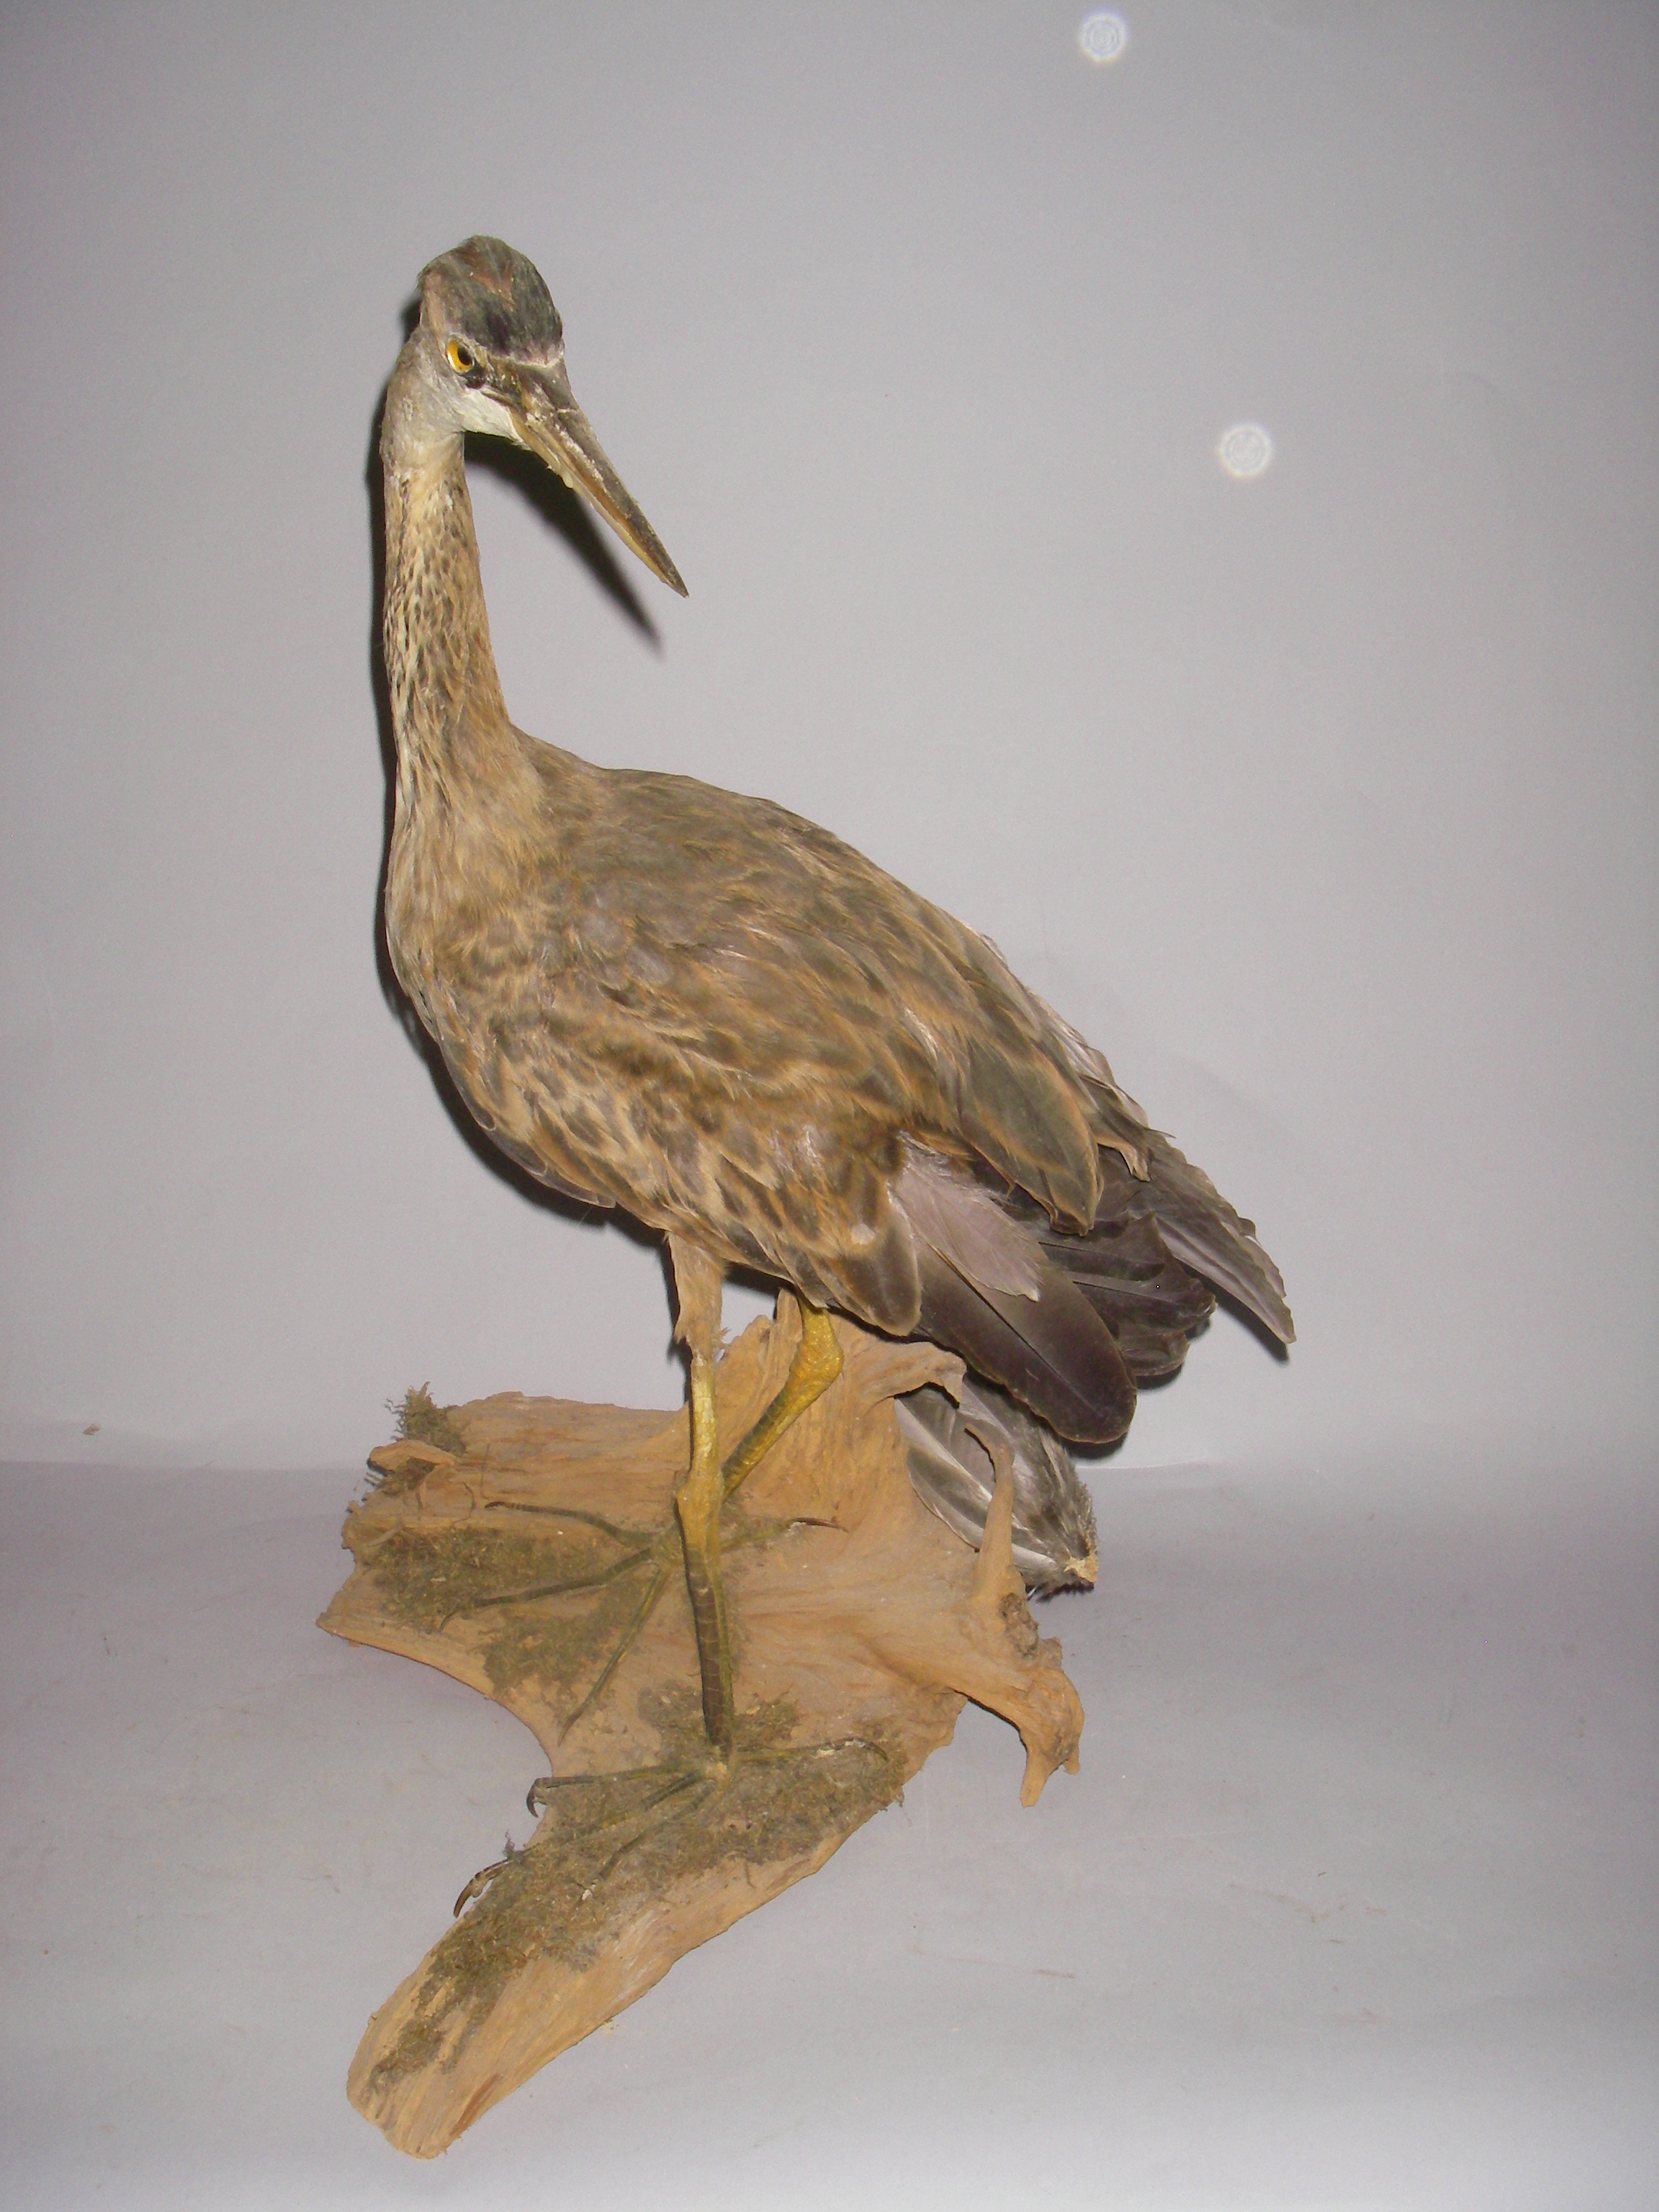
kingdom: Animalia
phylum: Chordata
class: Aves
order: Pelecaniformes
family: Ardeidae
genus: Ardea
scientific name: Ardea purpurea
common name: Purple heron
